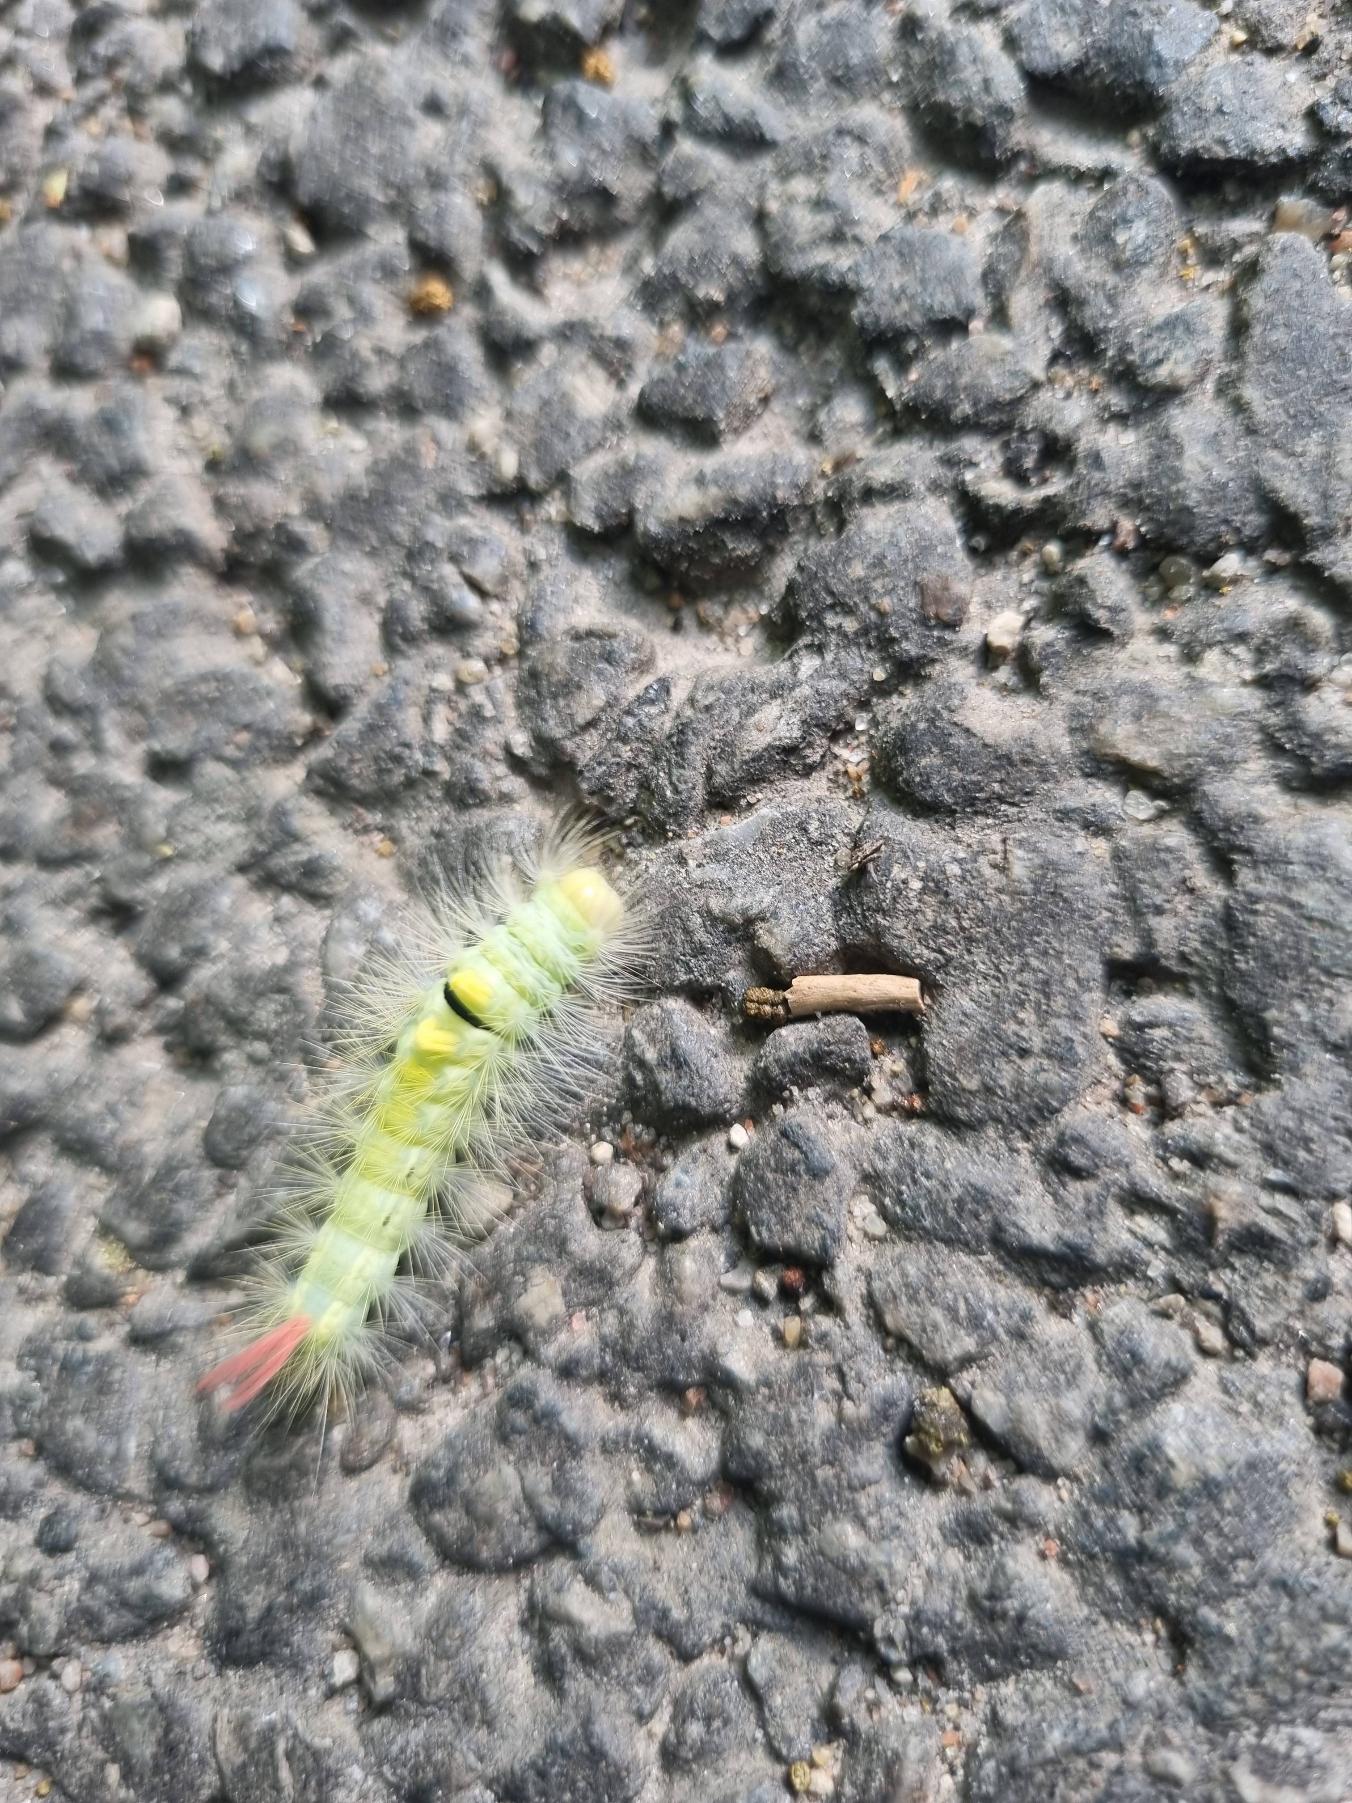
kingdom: Animalia
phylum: Arthropoda
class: Insecta
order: Lepidoptera
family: Erebidae
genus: Calliteara
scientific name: Calliteara pudibunda
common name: Bøgenonne
